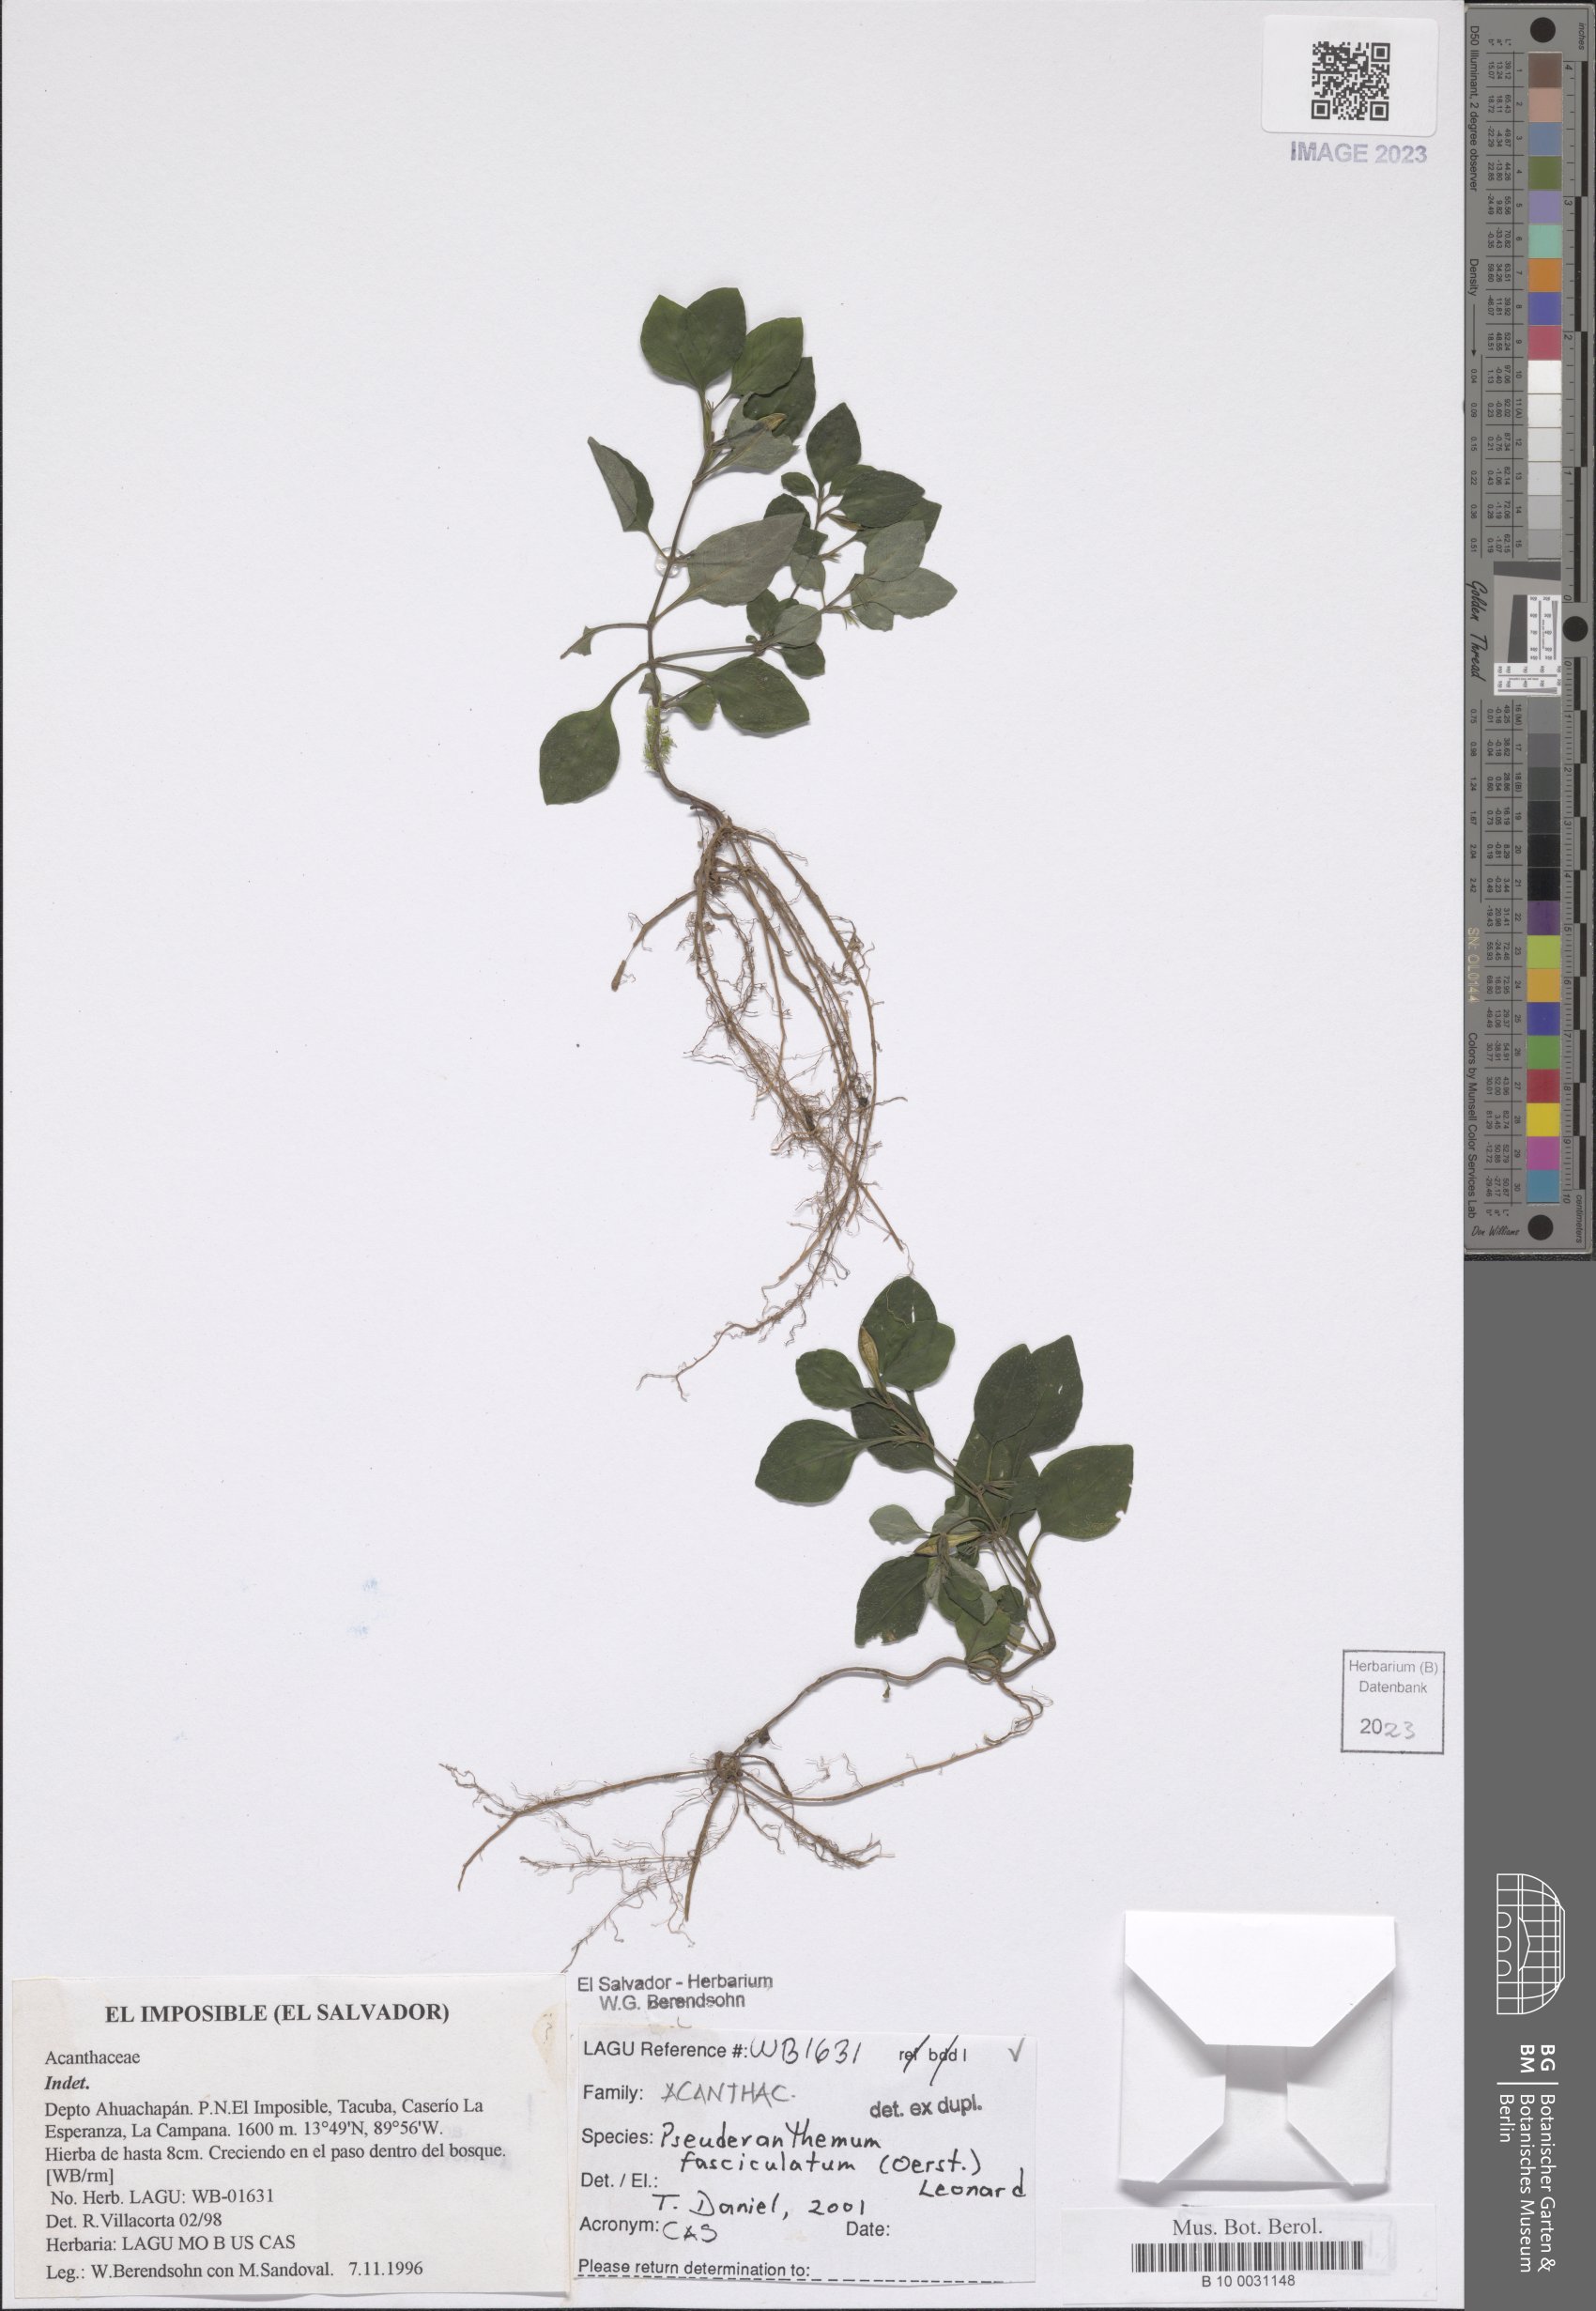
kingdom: Plantae
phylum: Tracheophyta
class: Magnoliopsida
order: Lamiales
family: Acanthaceae
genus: Pseuderanthemum
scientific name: Pseuderanthemum fasciculatum
